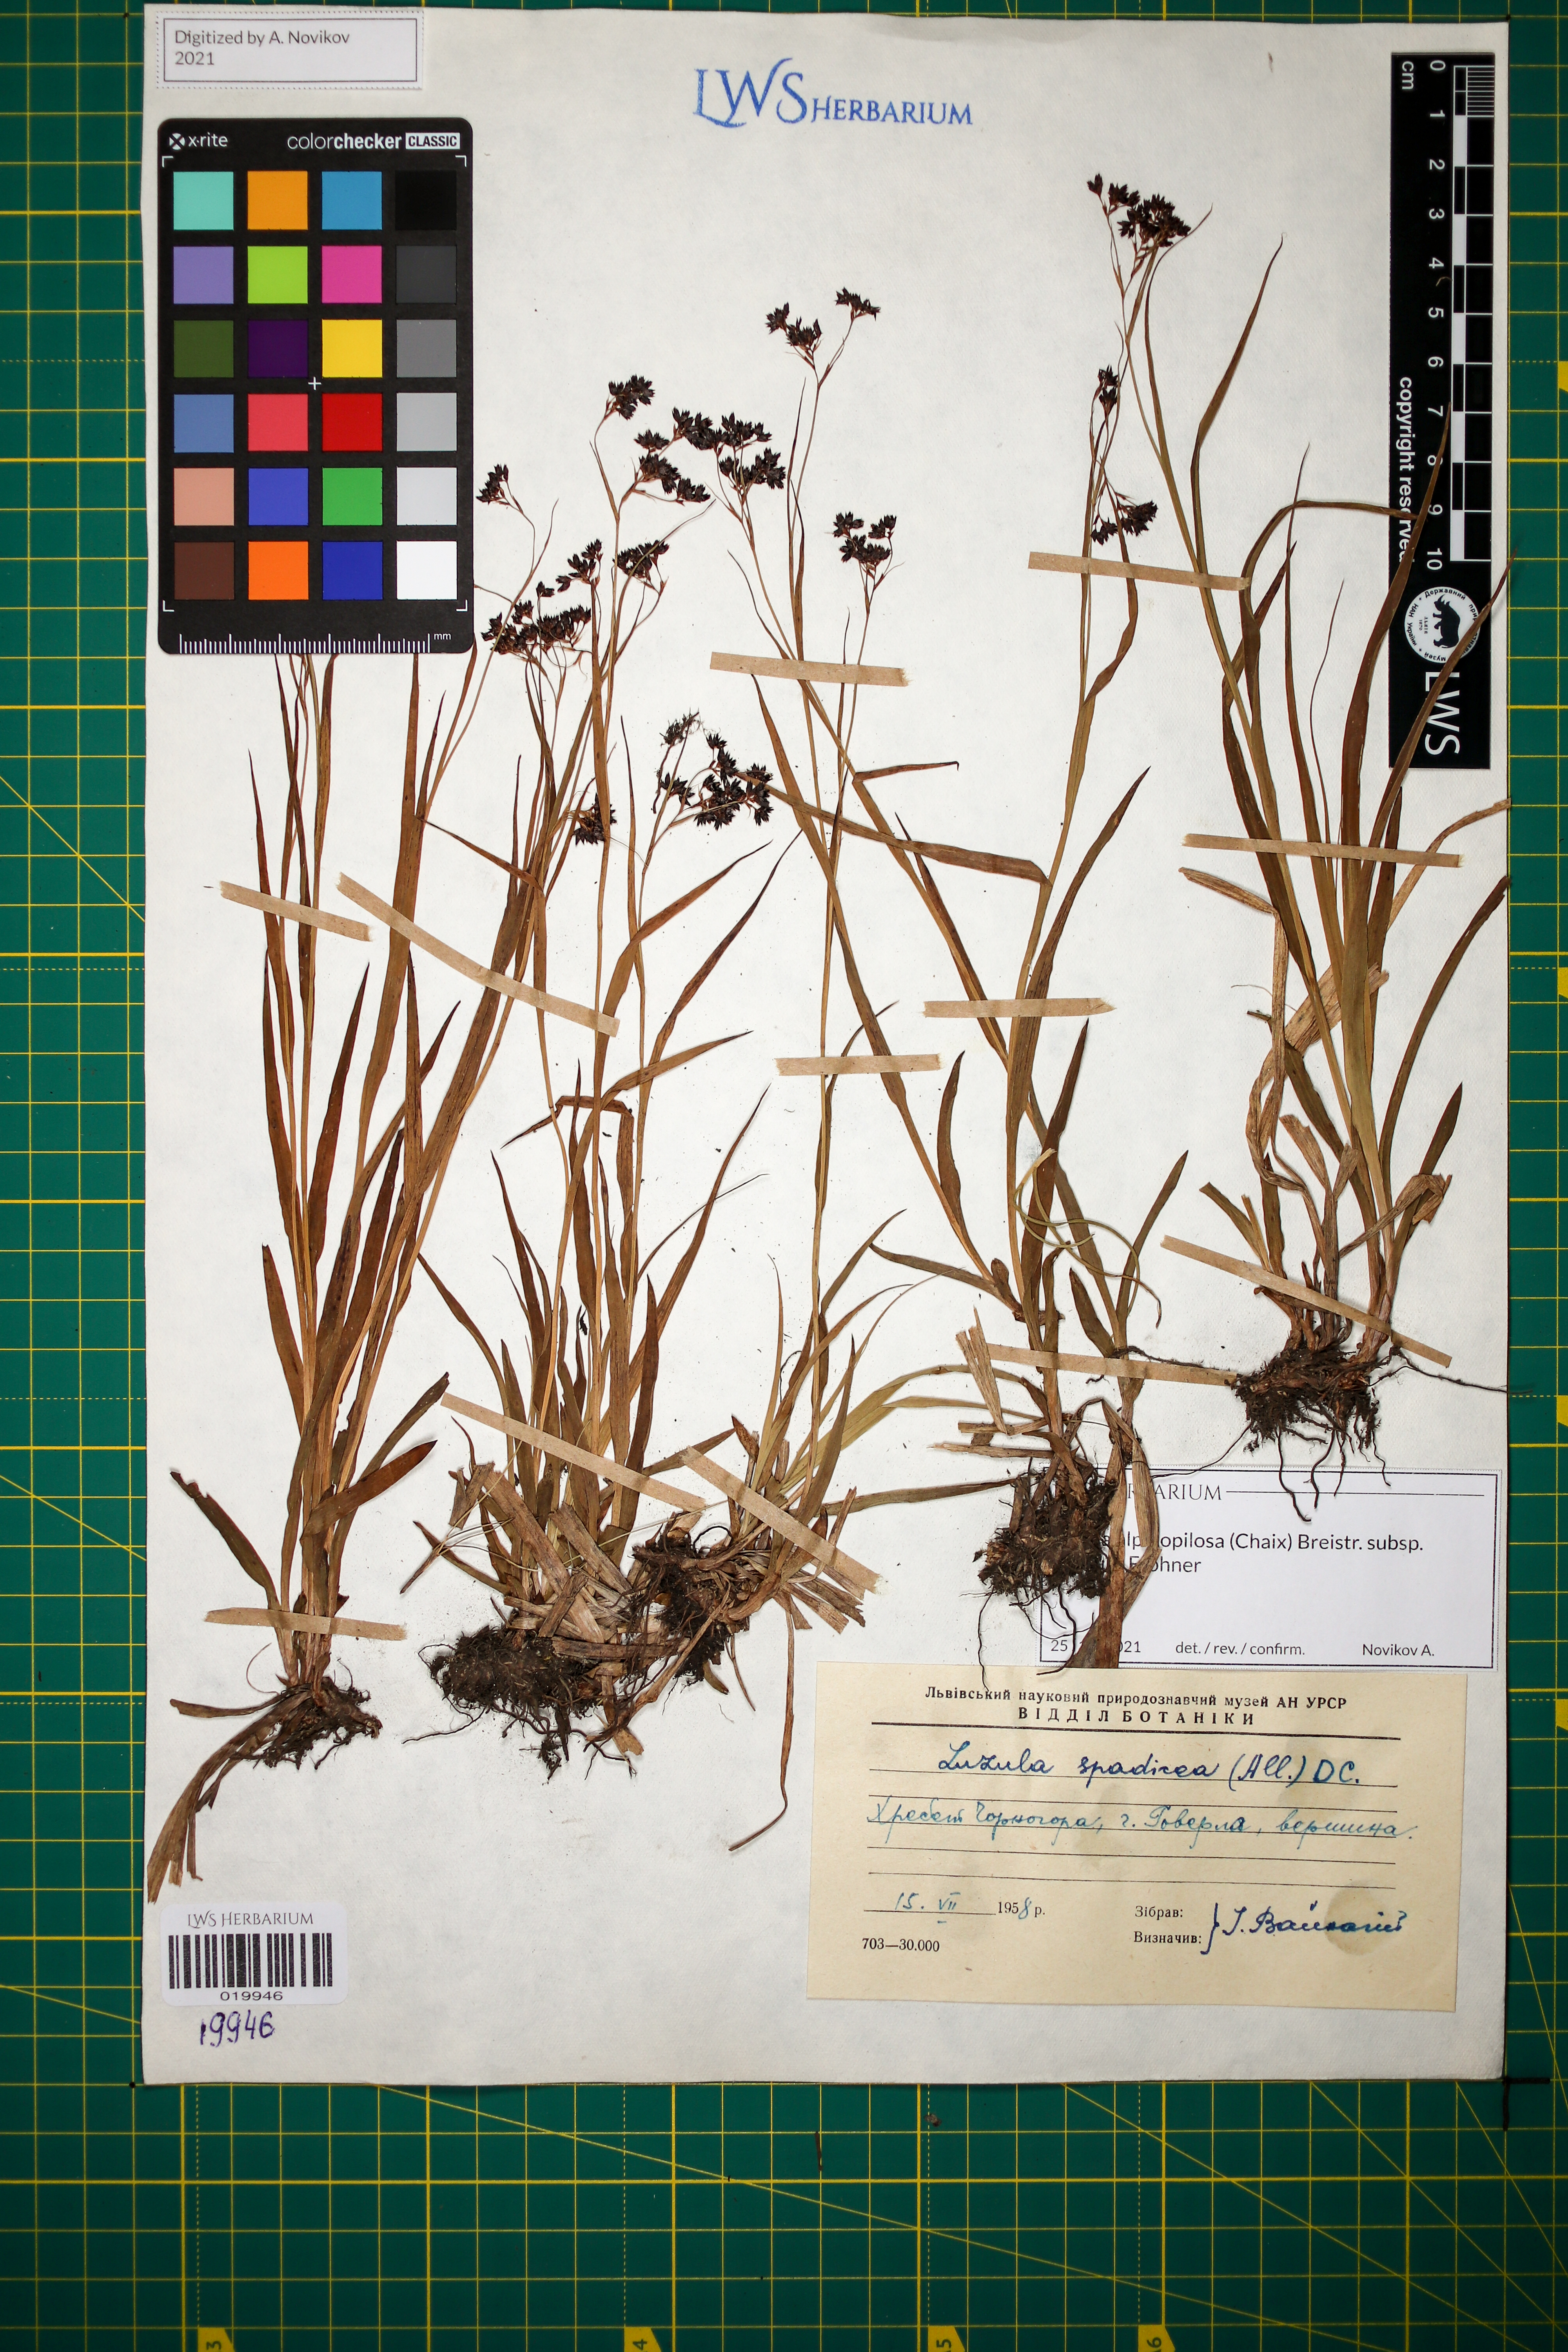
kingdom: Plantae
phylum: Tracheophyta
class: Liliopsida
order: Poales
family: Juncaceae
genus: Luzula
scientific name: Luzula alpinopilosa
